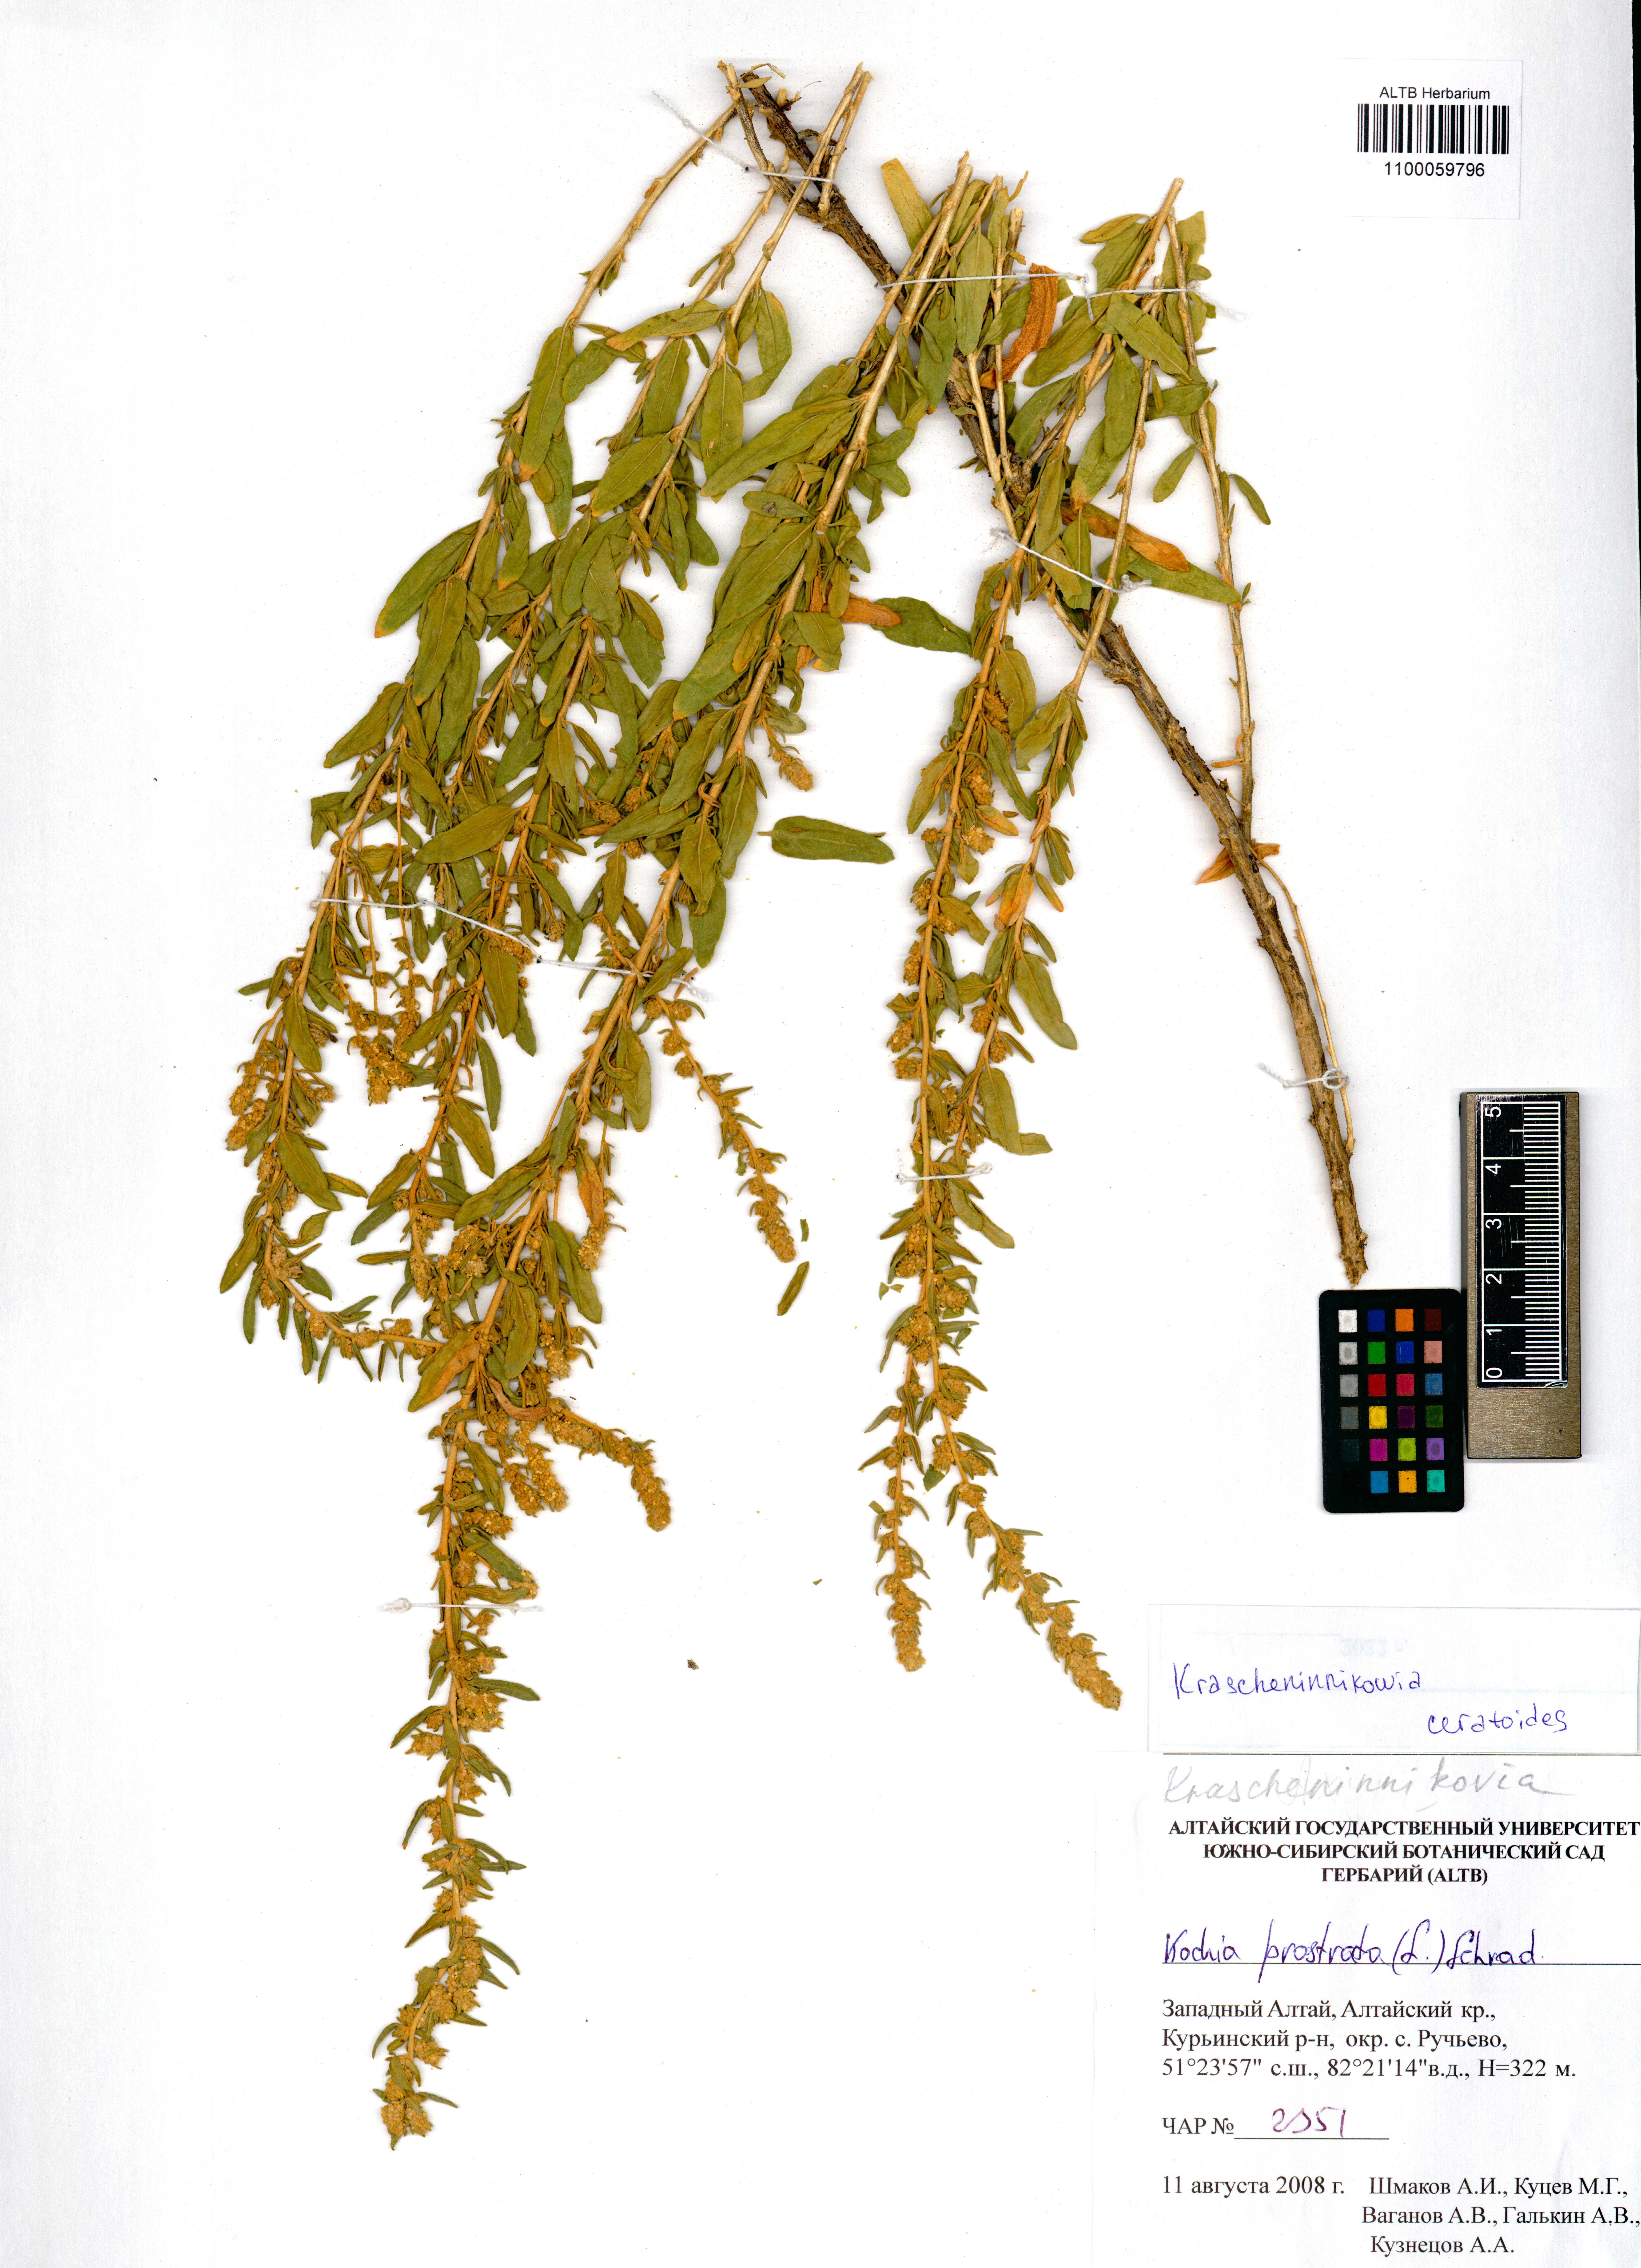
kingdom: Plantae
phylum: Tracheophyta
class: Magnoliopsida
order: Caryophyllales
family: Amaranthaceae
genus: Krascheninnikovia
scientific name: Krascheninnikovia ceratoides
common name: Pamirian winterfat
